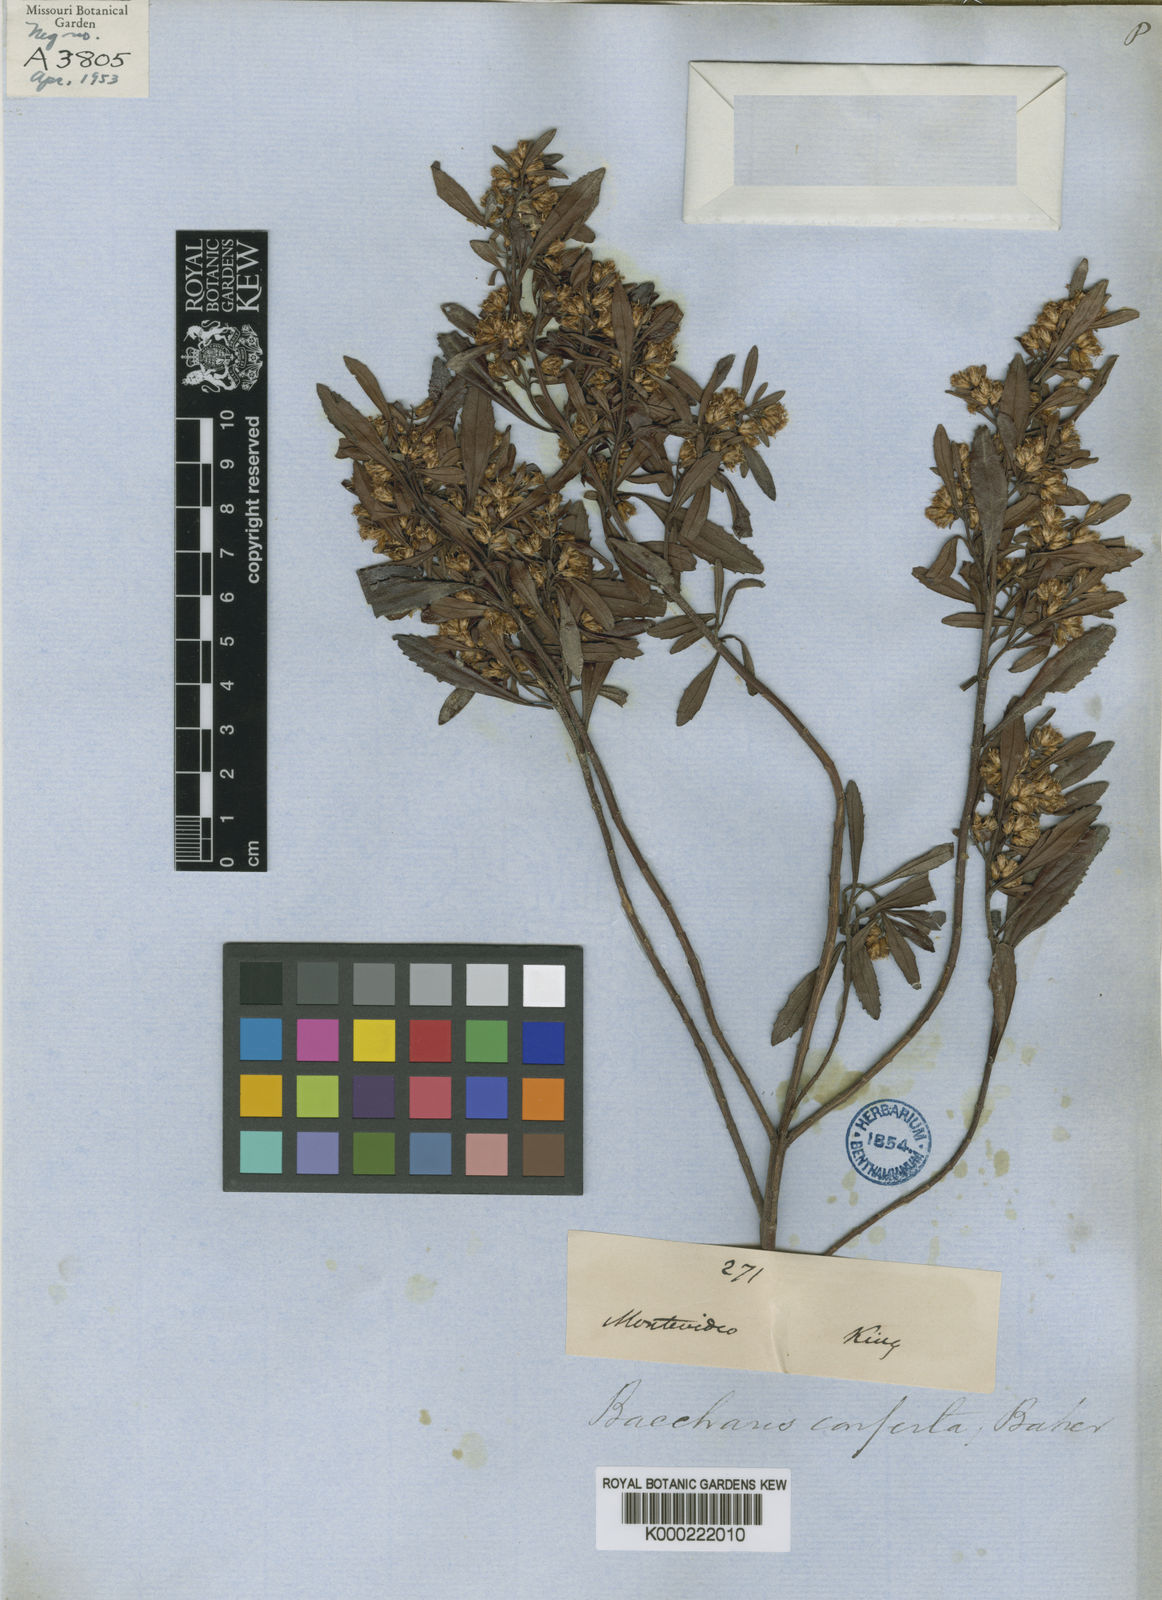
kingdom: Plantae
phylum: Tracheophyta
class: Magnoliopsida
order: Asterales
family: Asteraceae
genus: Baccharis
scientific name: Baccharis
